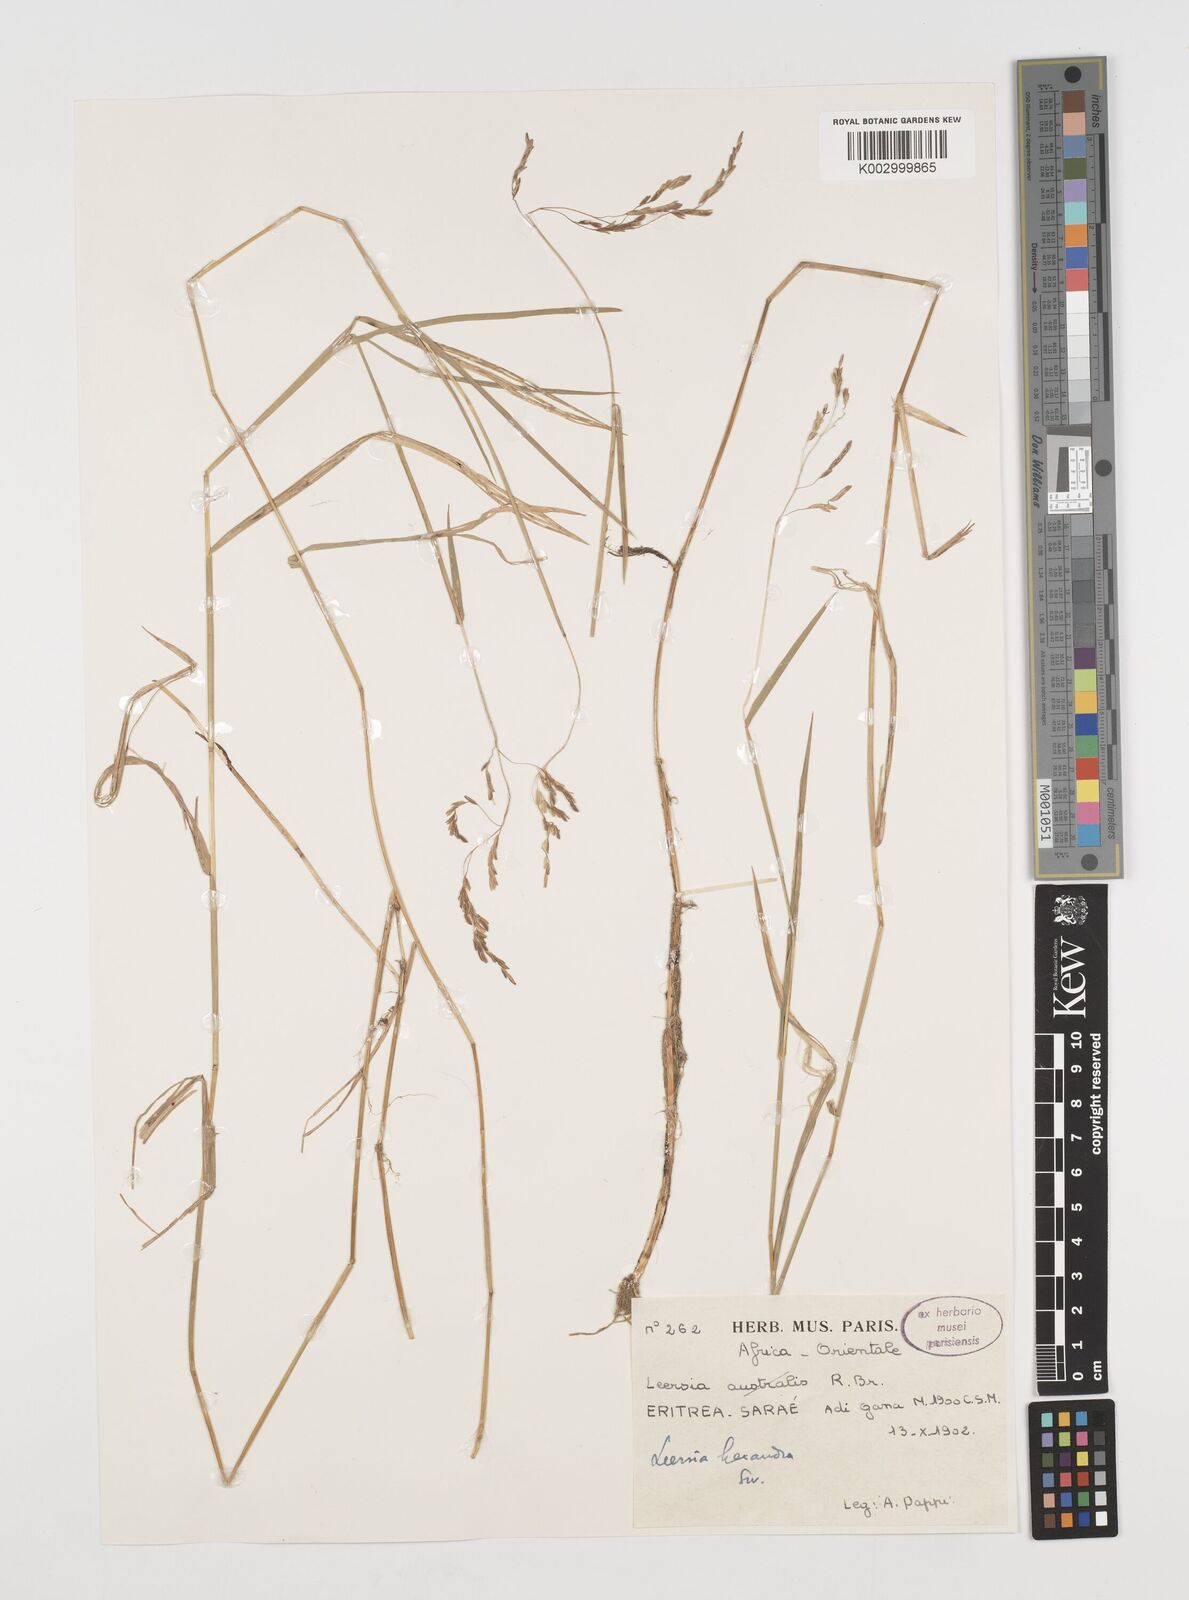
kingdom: Plantae
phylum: Tracheophyta
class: Liliopsida
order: Poales
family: Poaceae
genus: Leersia
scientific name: Leersia hexandra
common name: Southern cut grass
